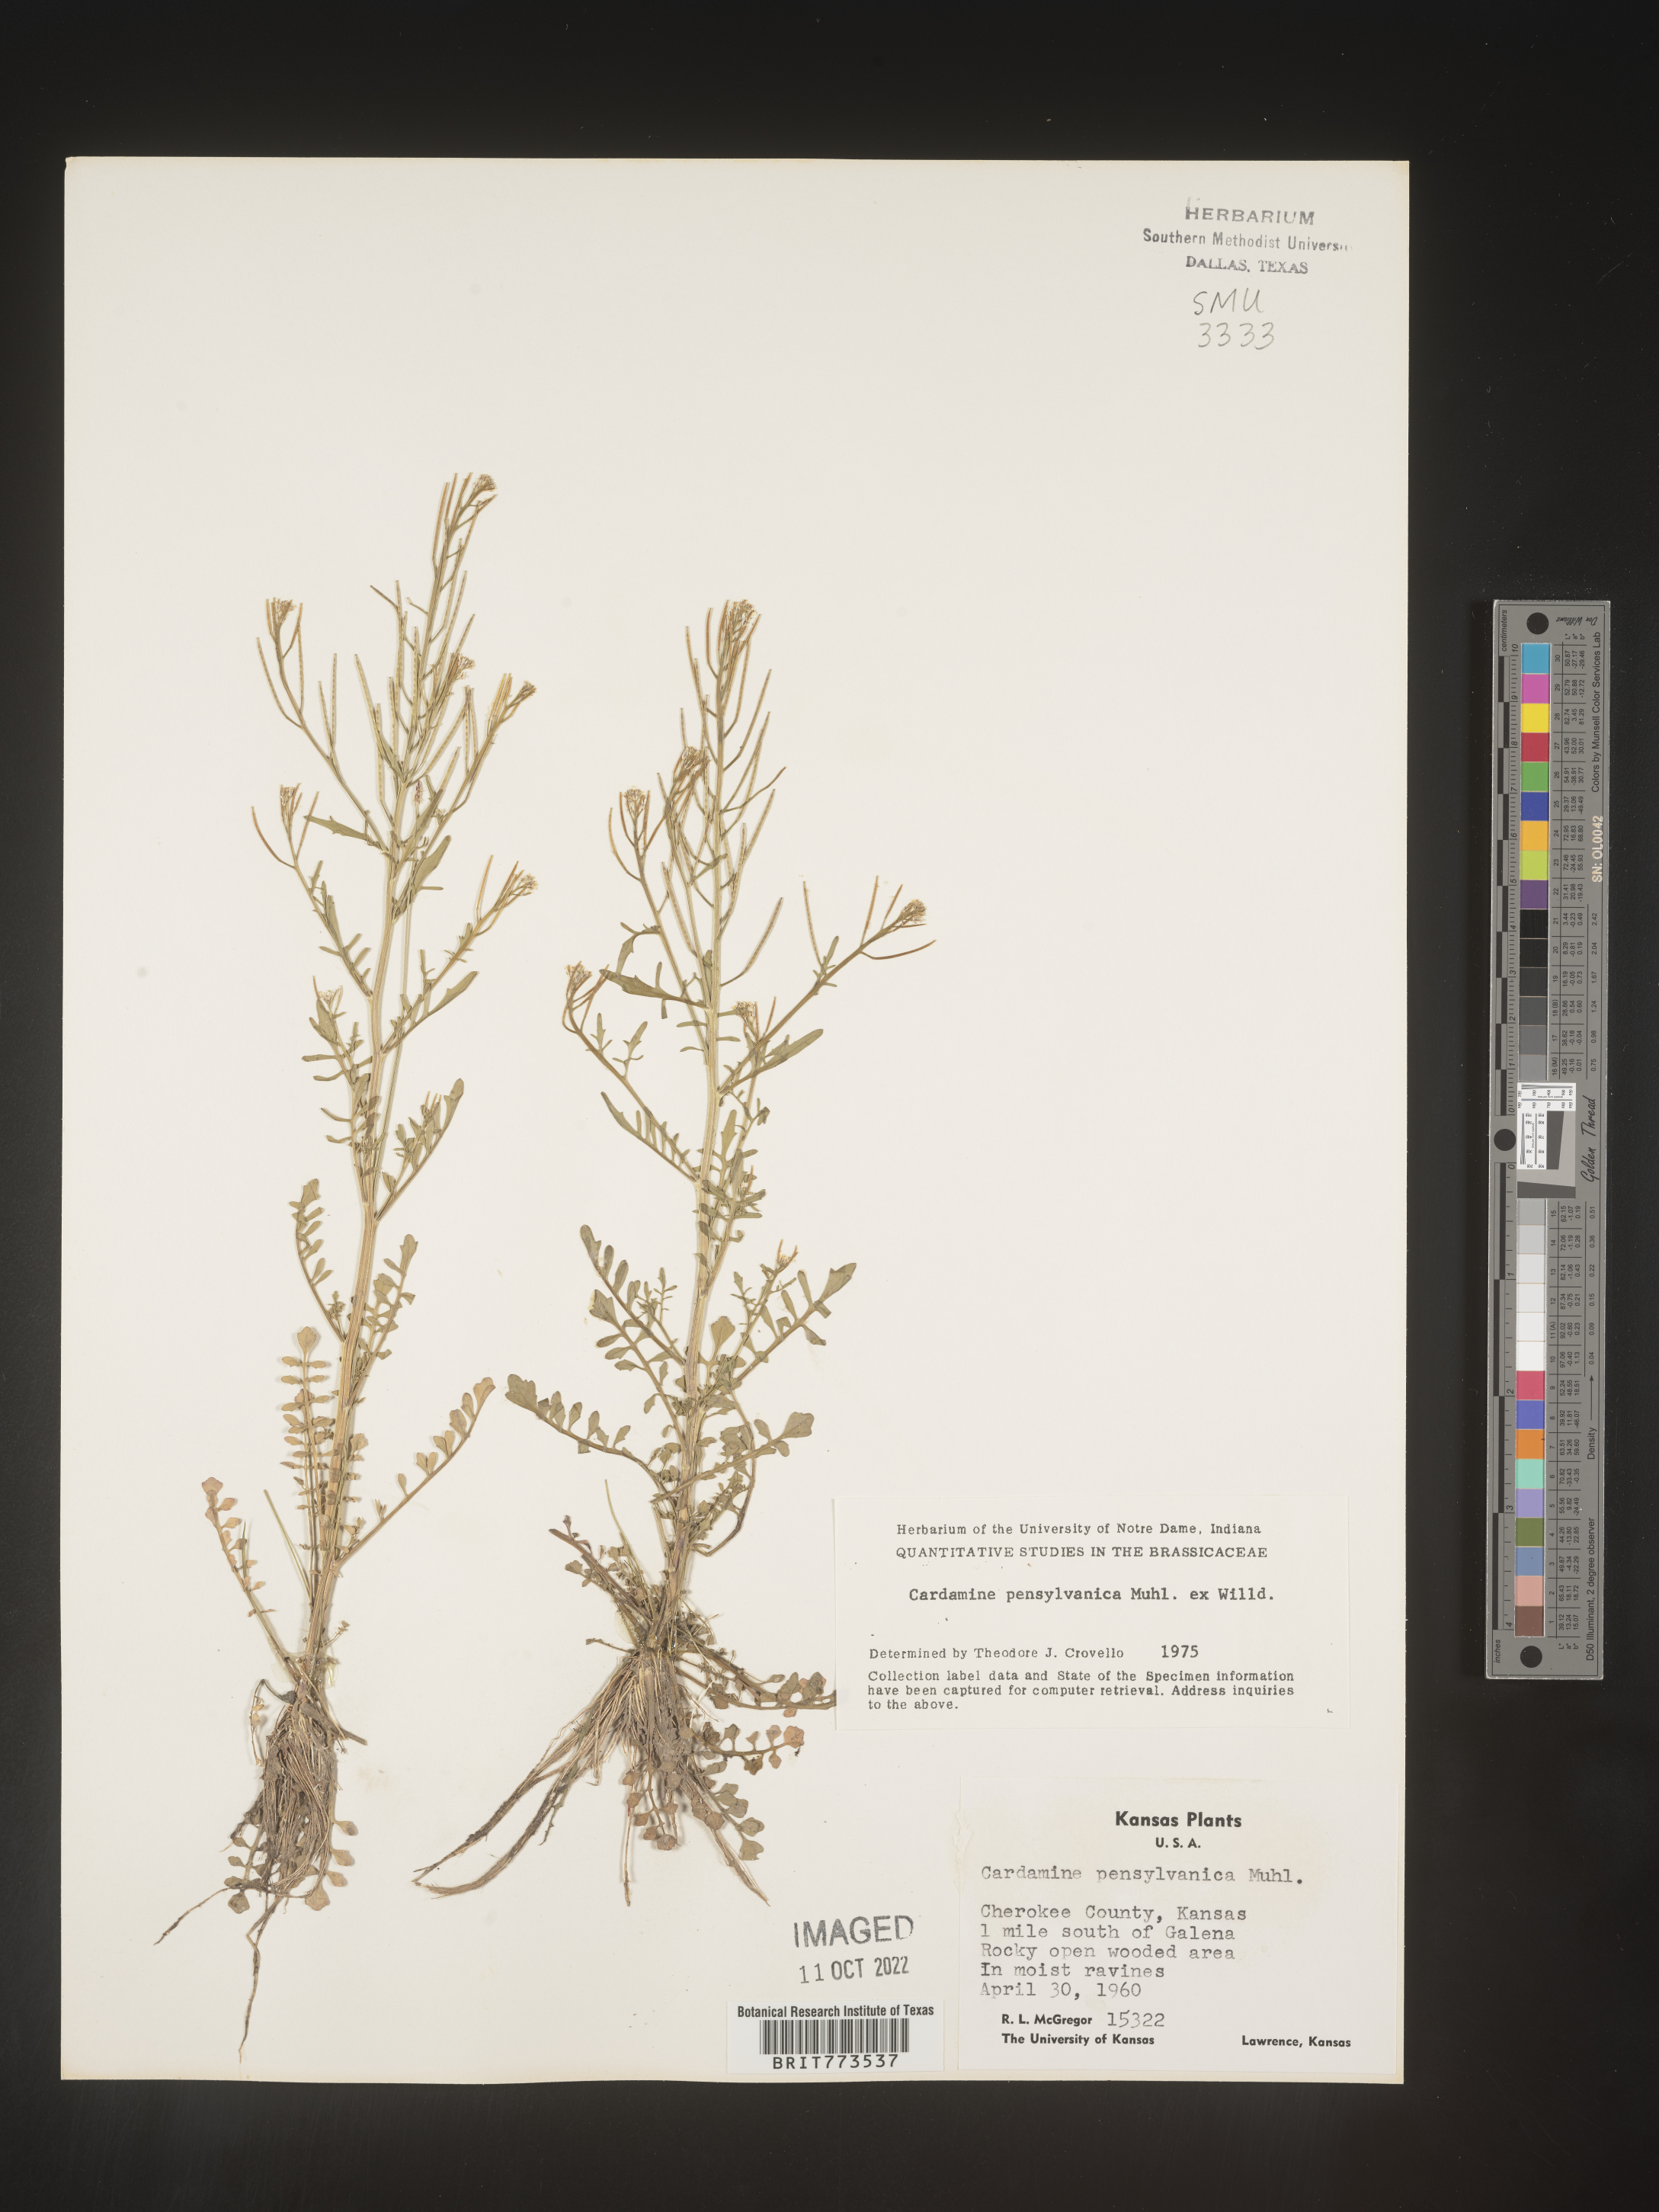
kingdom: Plantae
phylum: Tracheophyta
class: Magnoliopsida
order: Brassicales
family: Brassicaceae
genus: Cardamine
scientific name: Cardamine pensylvanica
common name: Pennsylvania bittercress
